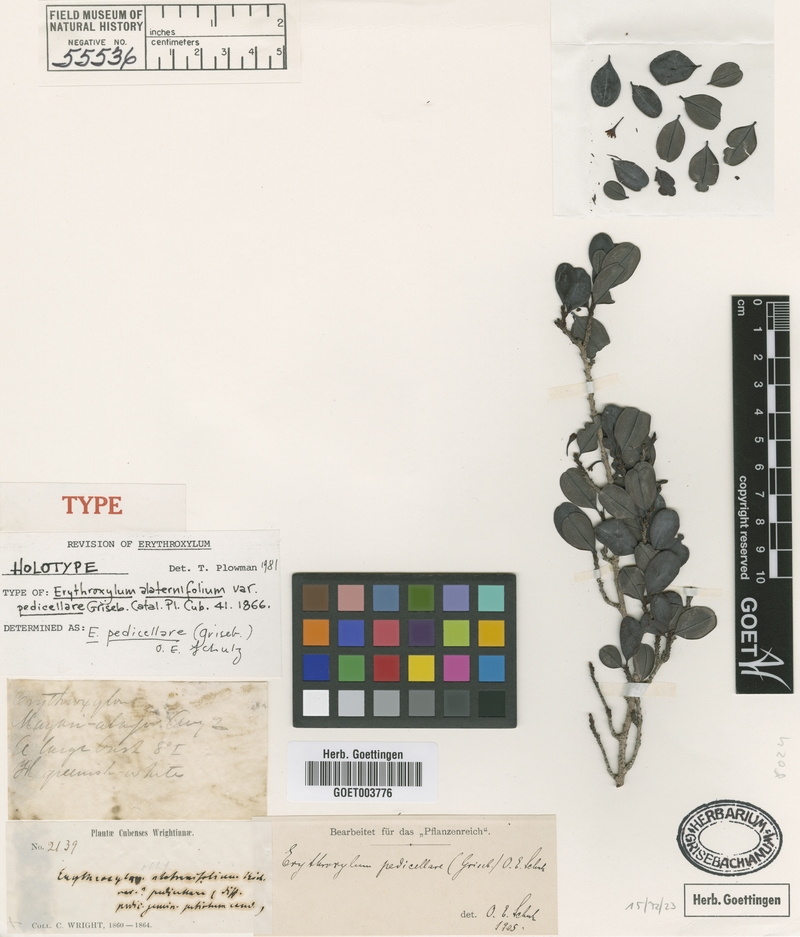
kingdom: Plantae
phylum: Tracheophyta
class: Magnoliopsida
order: Malpighiales
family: Erythroxylaceae
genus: Erythroxylum
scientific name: Erythroxylum pedicellare
